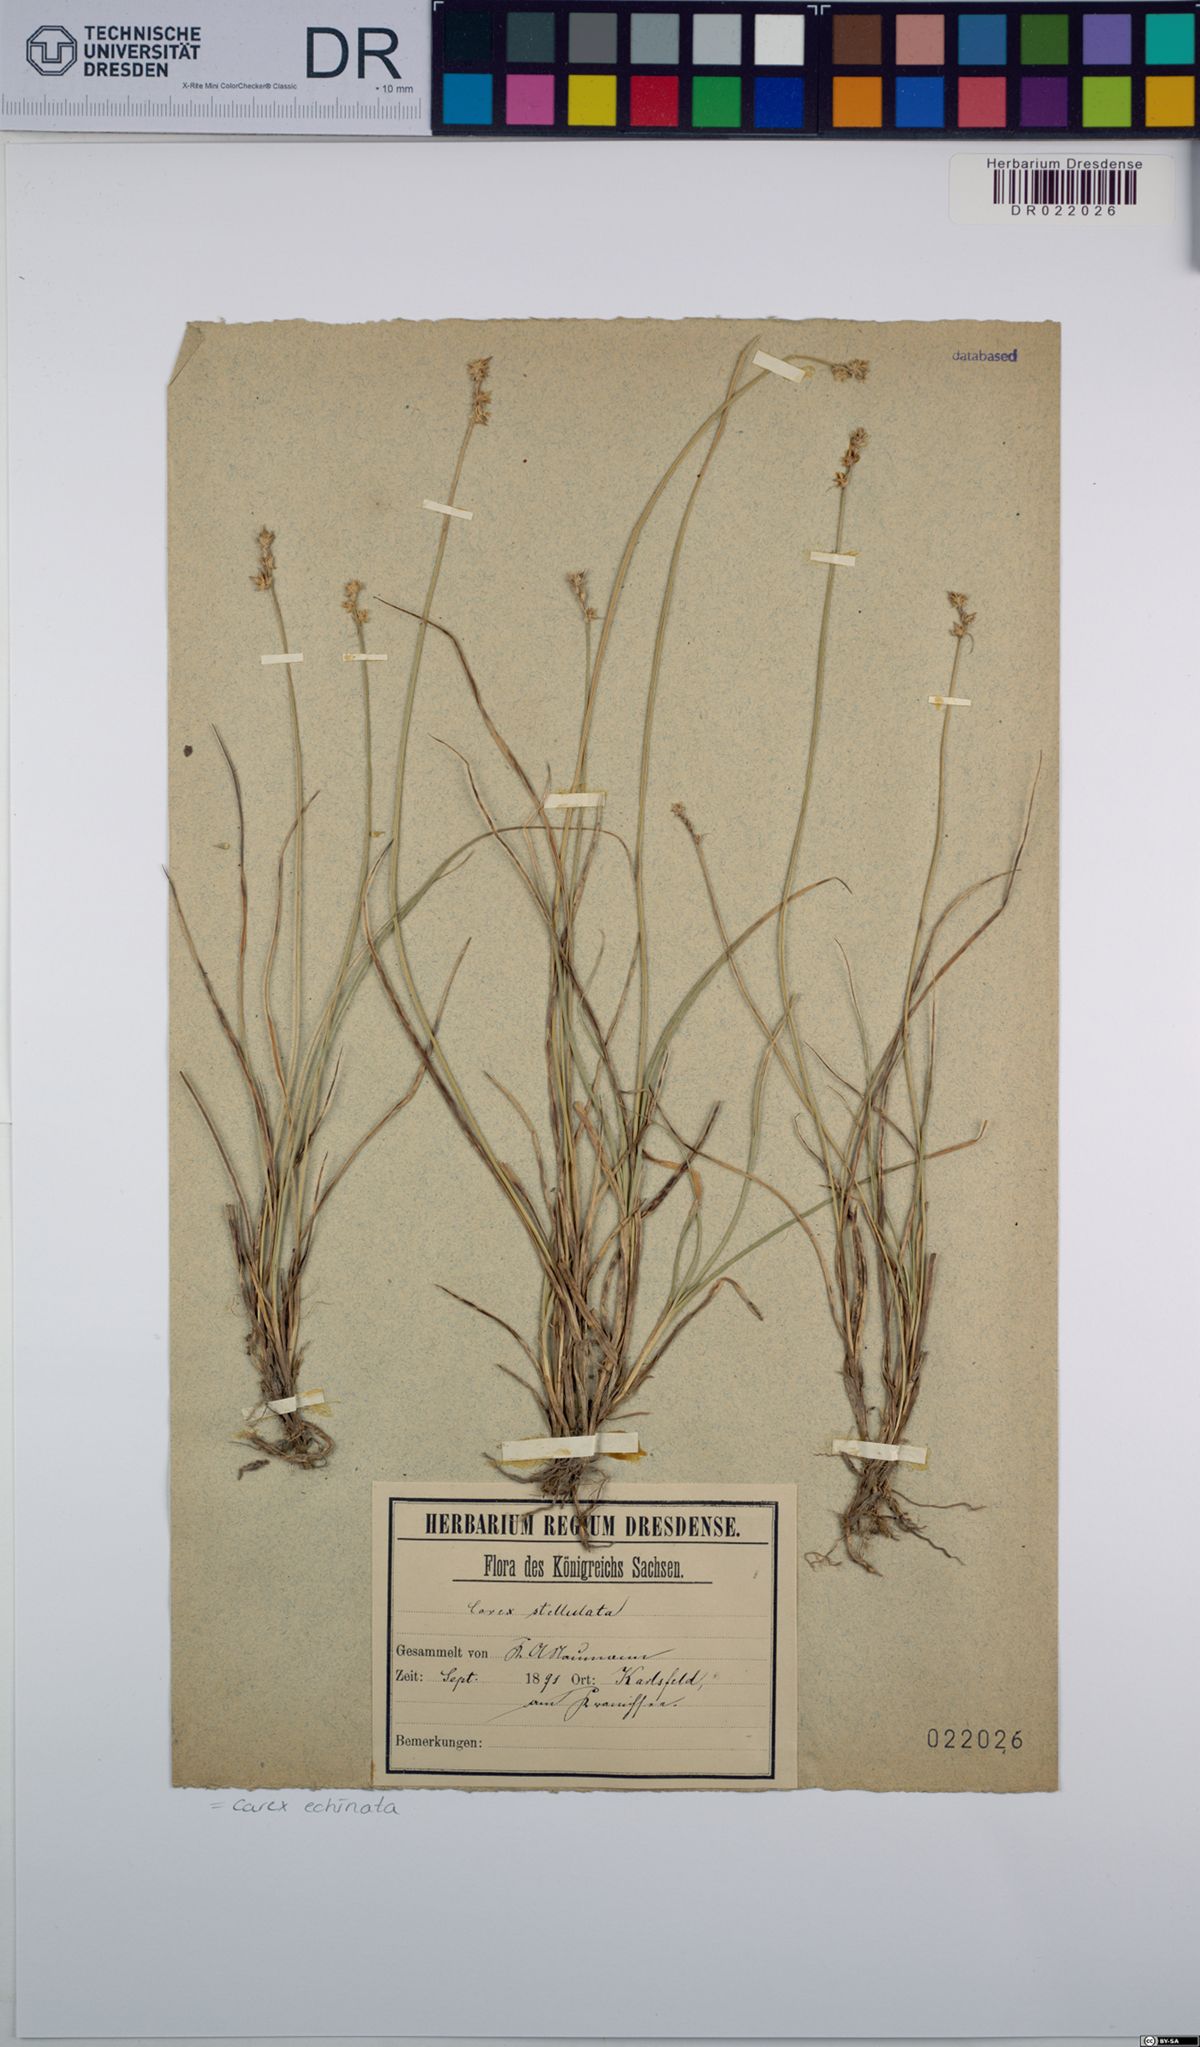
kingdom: Plantae
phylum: Tracheophyta
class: Liliopsida
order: Poales
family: Cyperaceae
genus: Carex
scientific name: Carex echinata
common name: Star sedge
